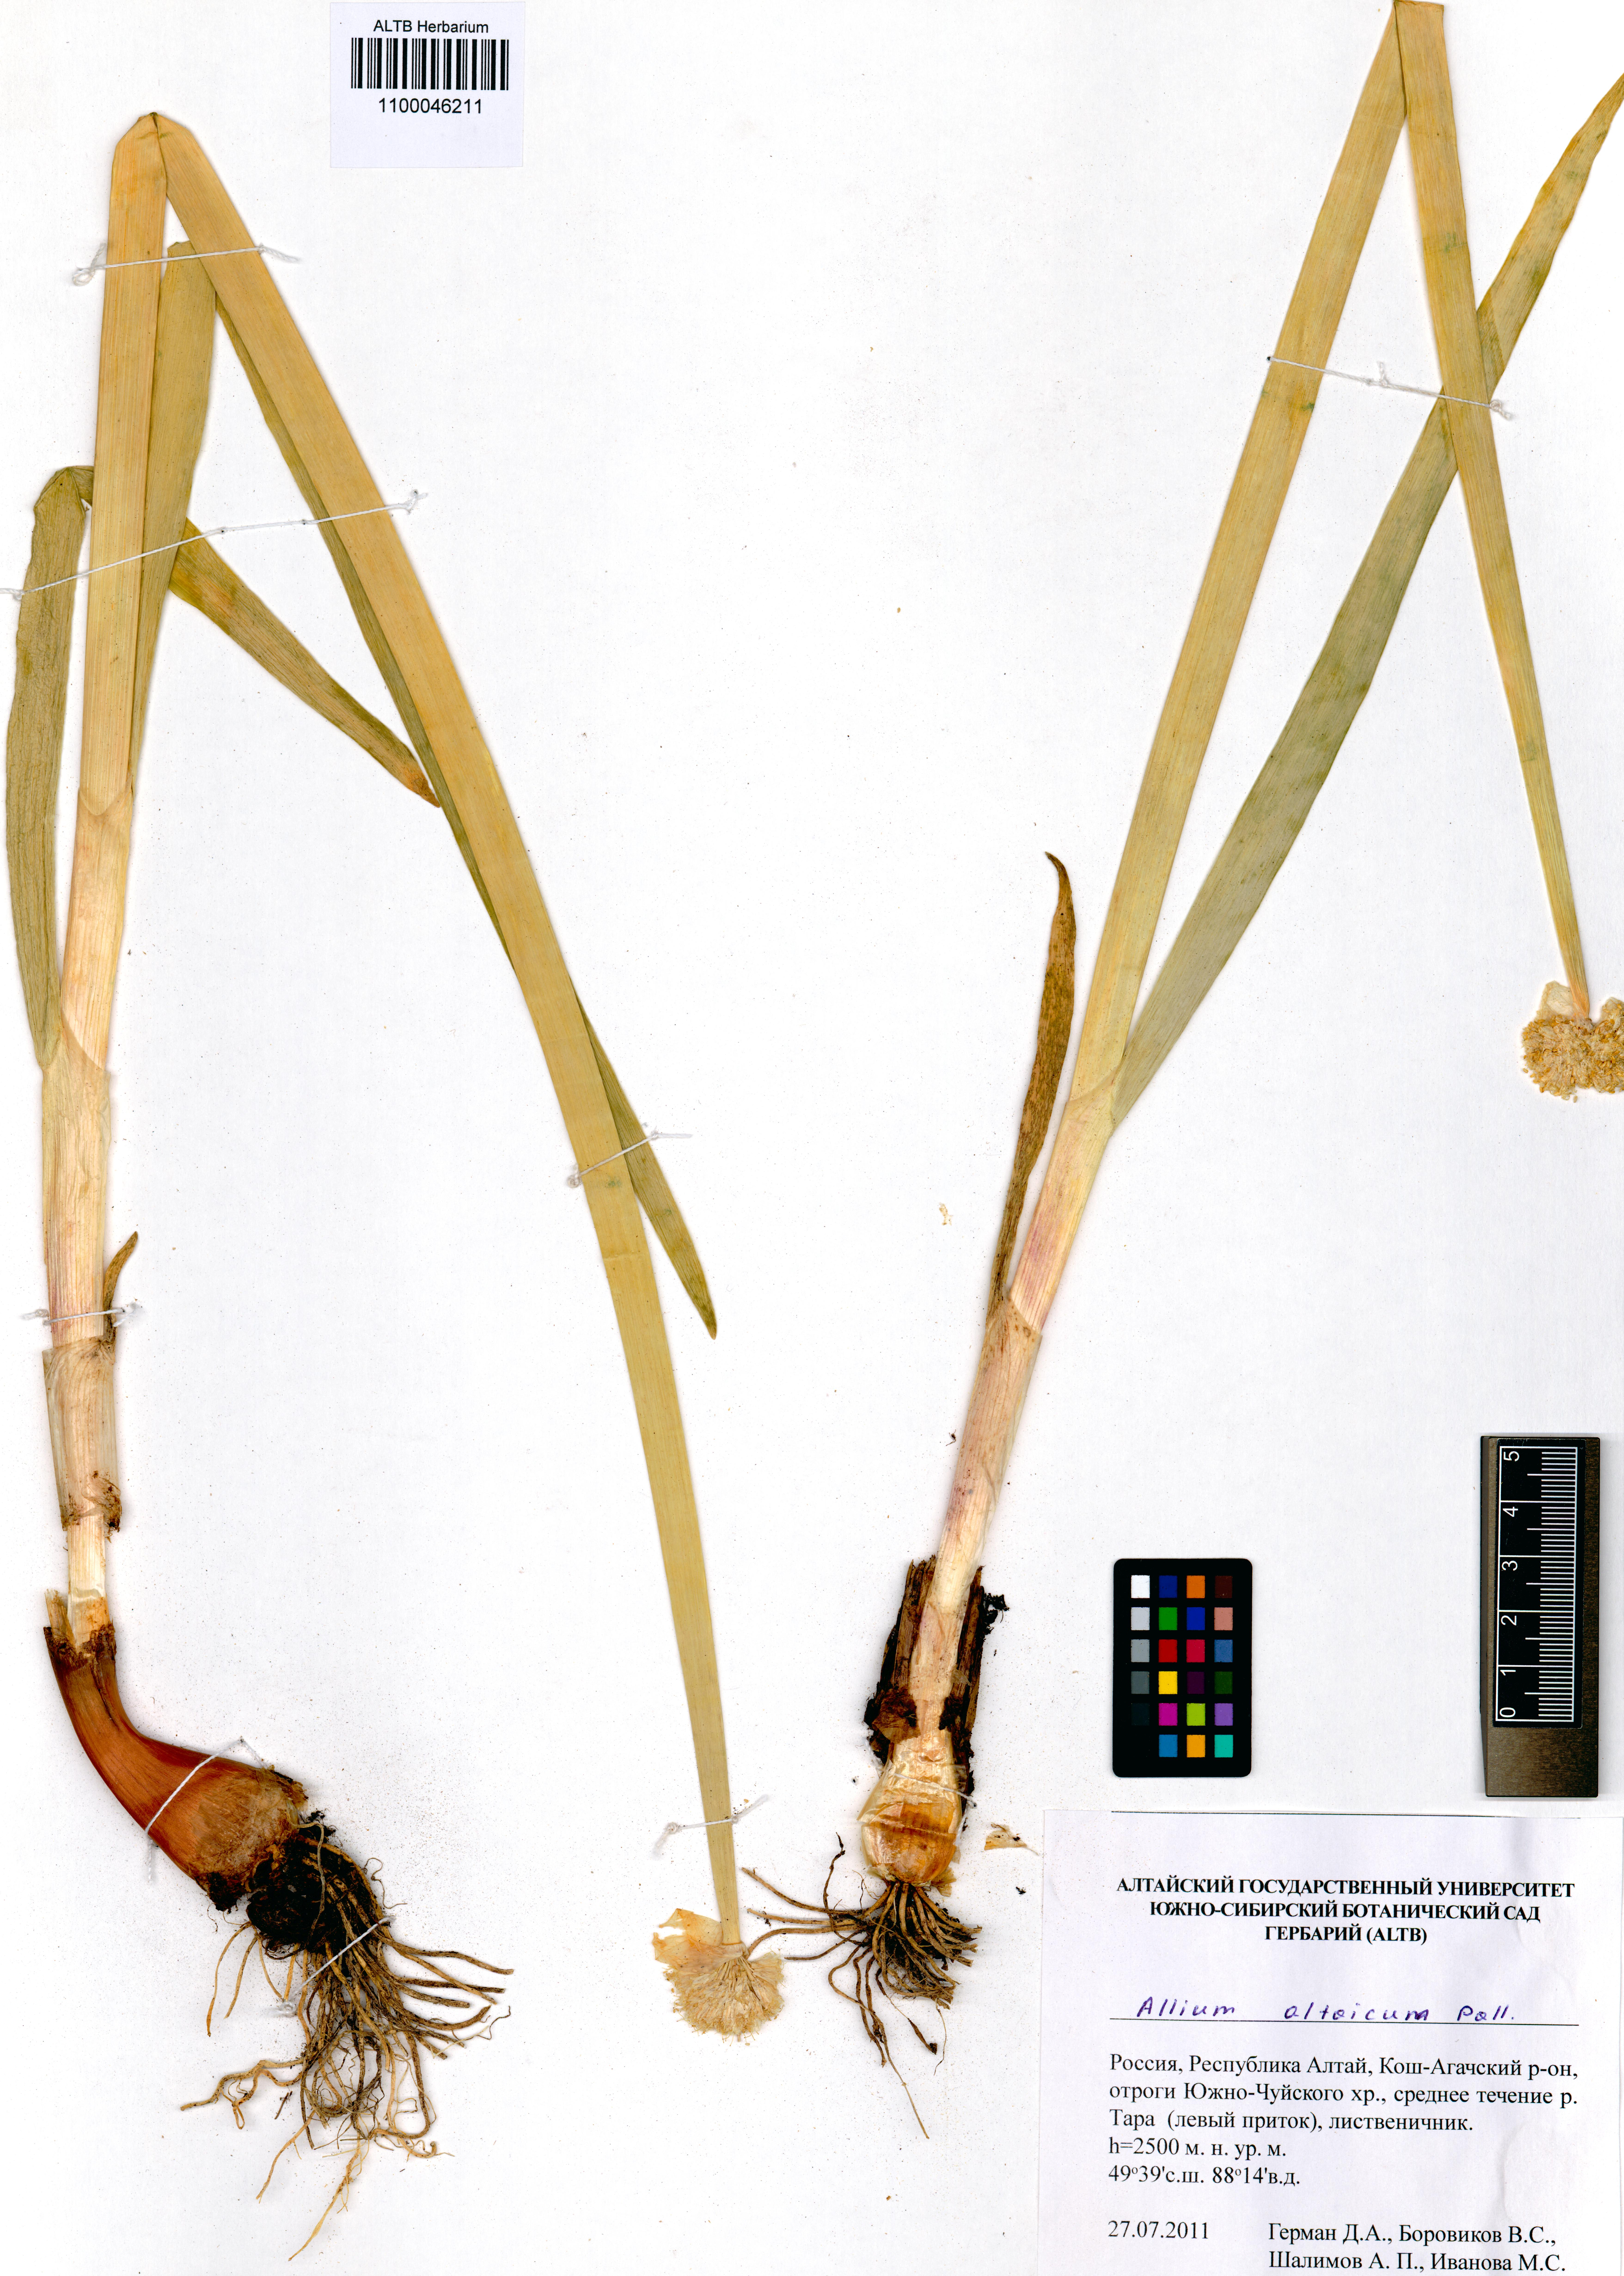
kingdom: Plantae
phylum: Tracheophyta
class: Liliopsida
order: Asparagales
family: Amaryllidaceae
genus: Allium
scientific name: Allium altaicum
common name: Altai onion
